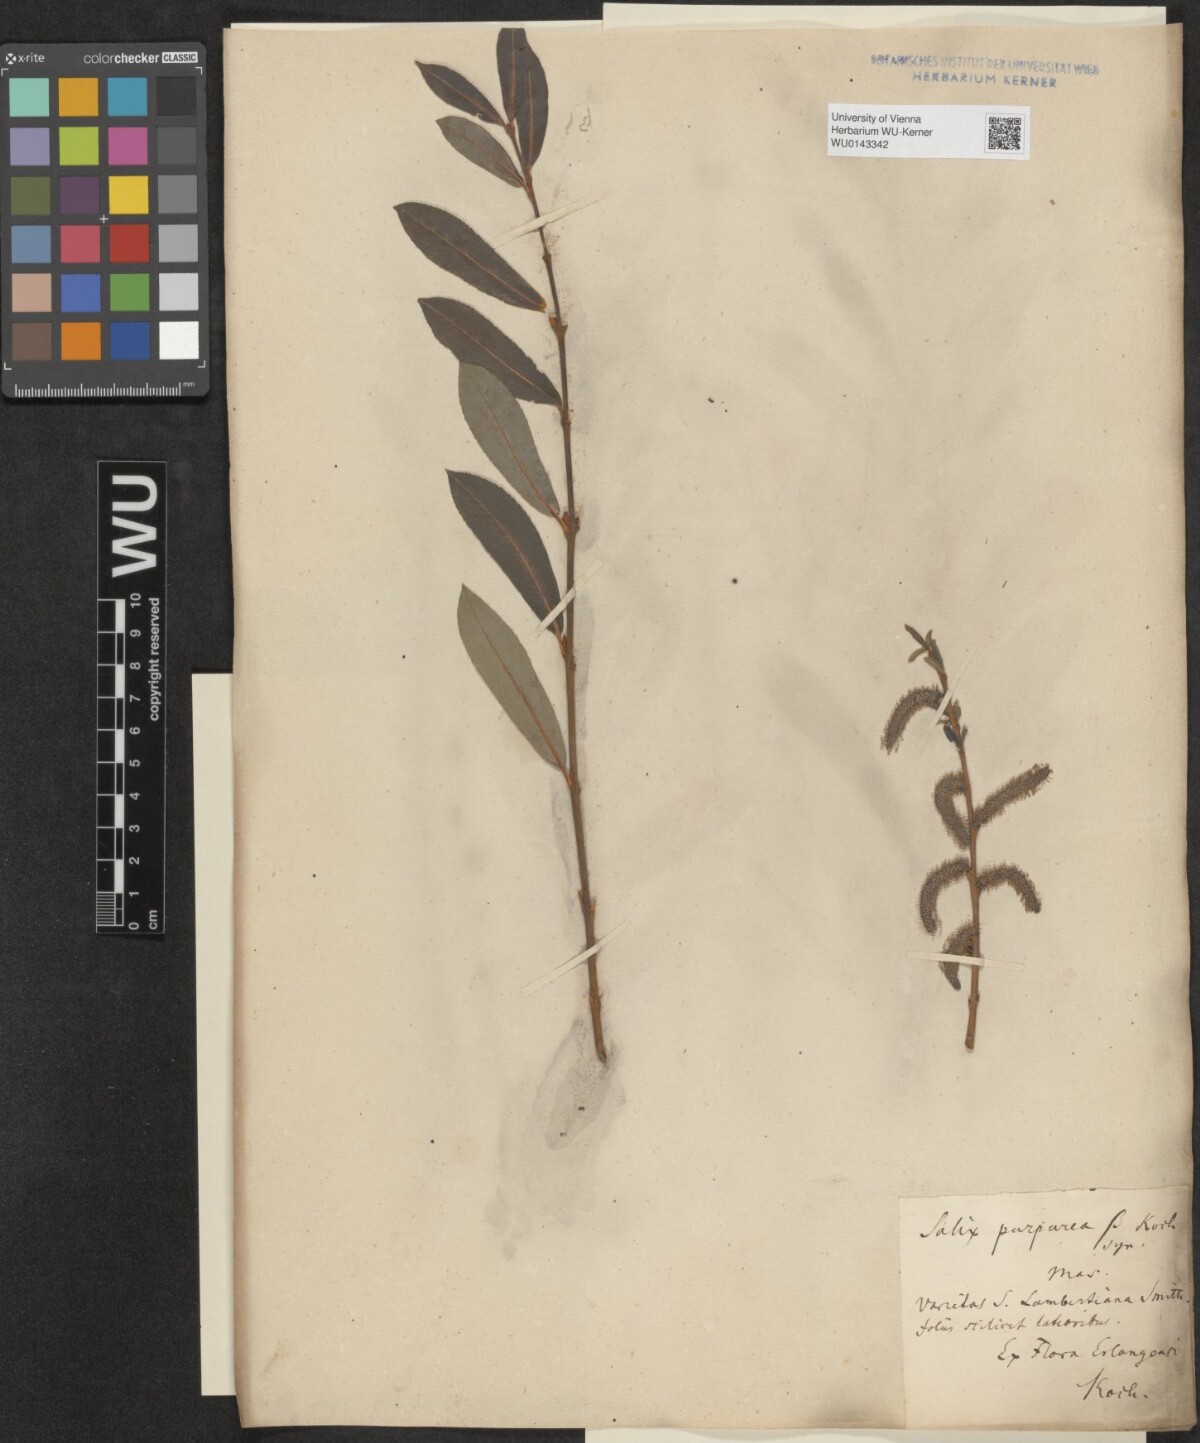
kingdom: Plantae
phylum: Tracheophyta
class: Magnoliopsida
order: Malpighiales
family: Salicaceae
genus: Salix
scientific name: Salix purpurea
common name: Purple willow
